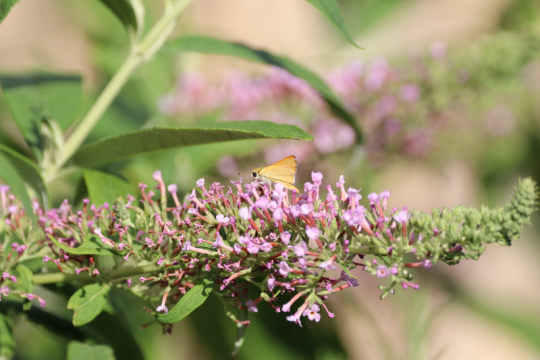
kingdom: Animalia
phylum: Arthropoda
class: Insecta
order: Lepidoptera
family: Hesperiidae
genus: Ancyloxypha
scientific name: Ancyloxypha numitor
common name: Least Skipper
